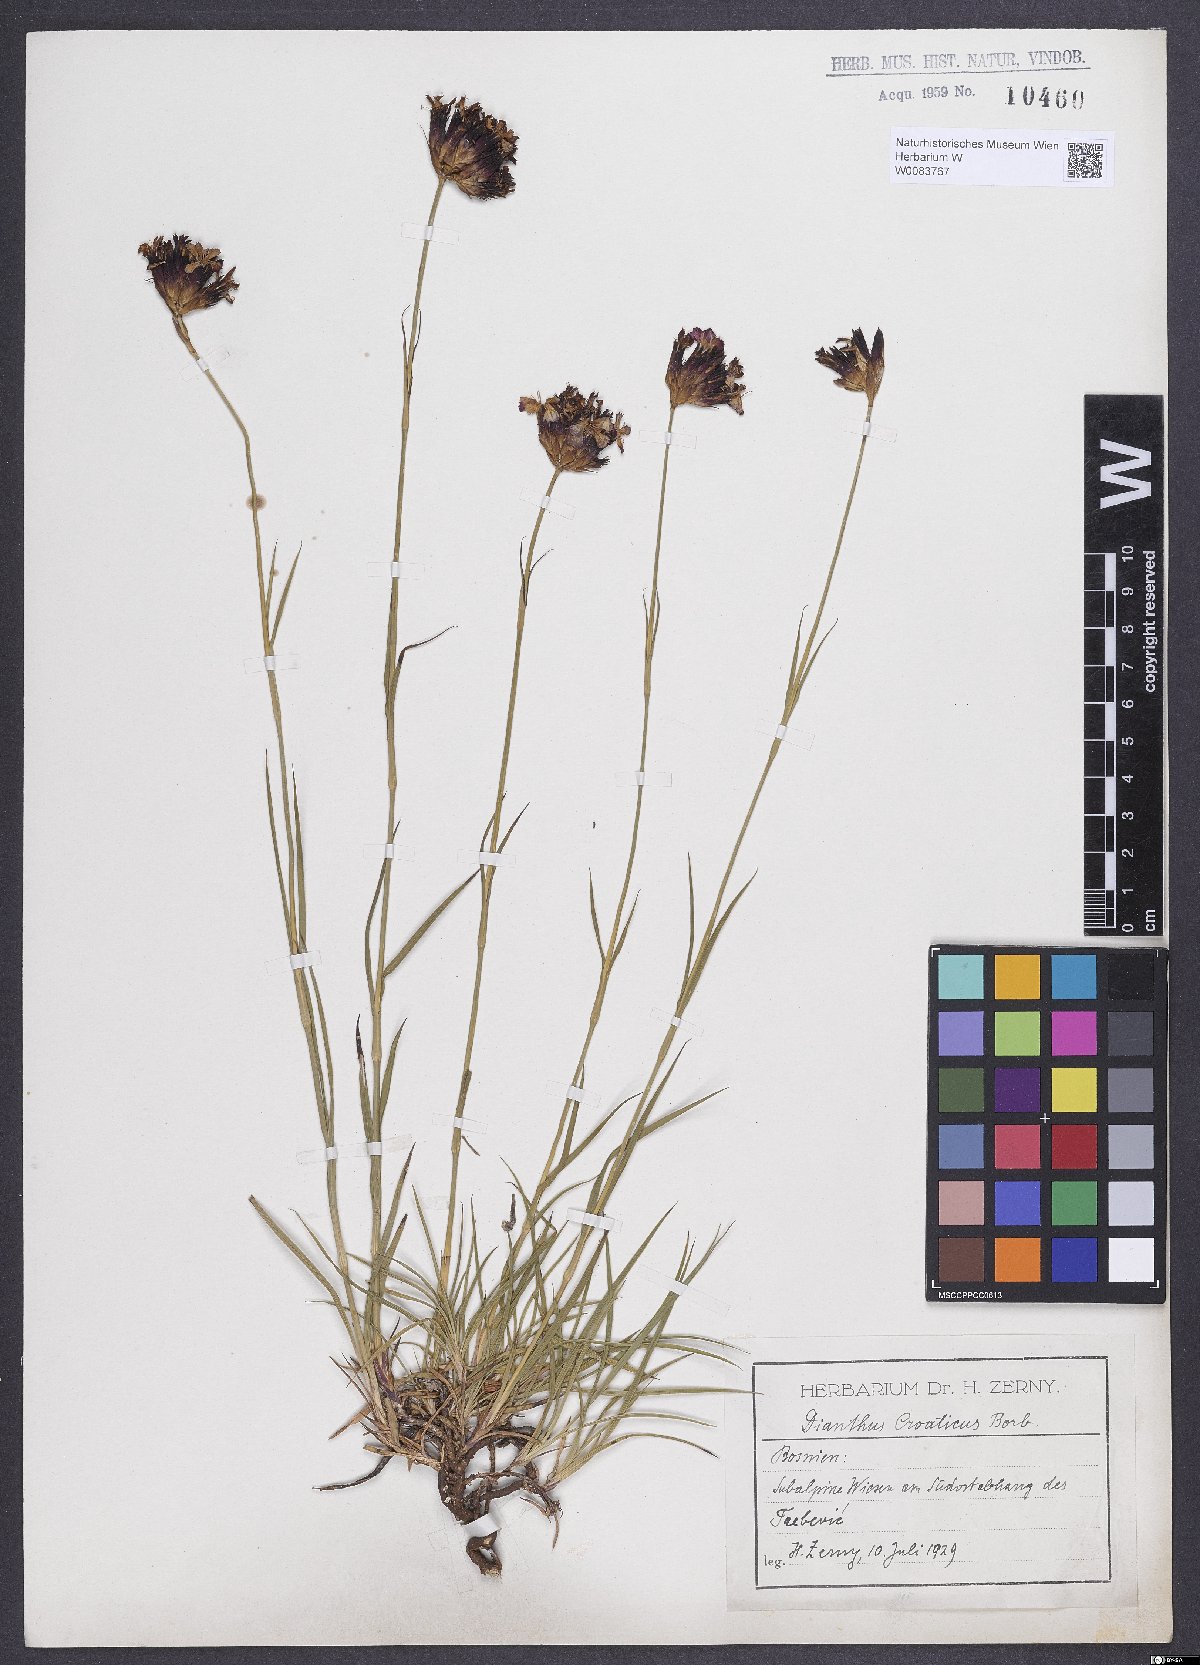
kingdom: Plantae
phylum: Tracheophyta
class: Magnoliopsida
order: Caryophyllales
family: Caryophyllaceae
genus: Dianthus
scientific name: Dianthus giganteus
